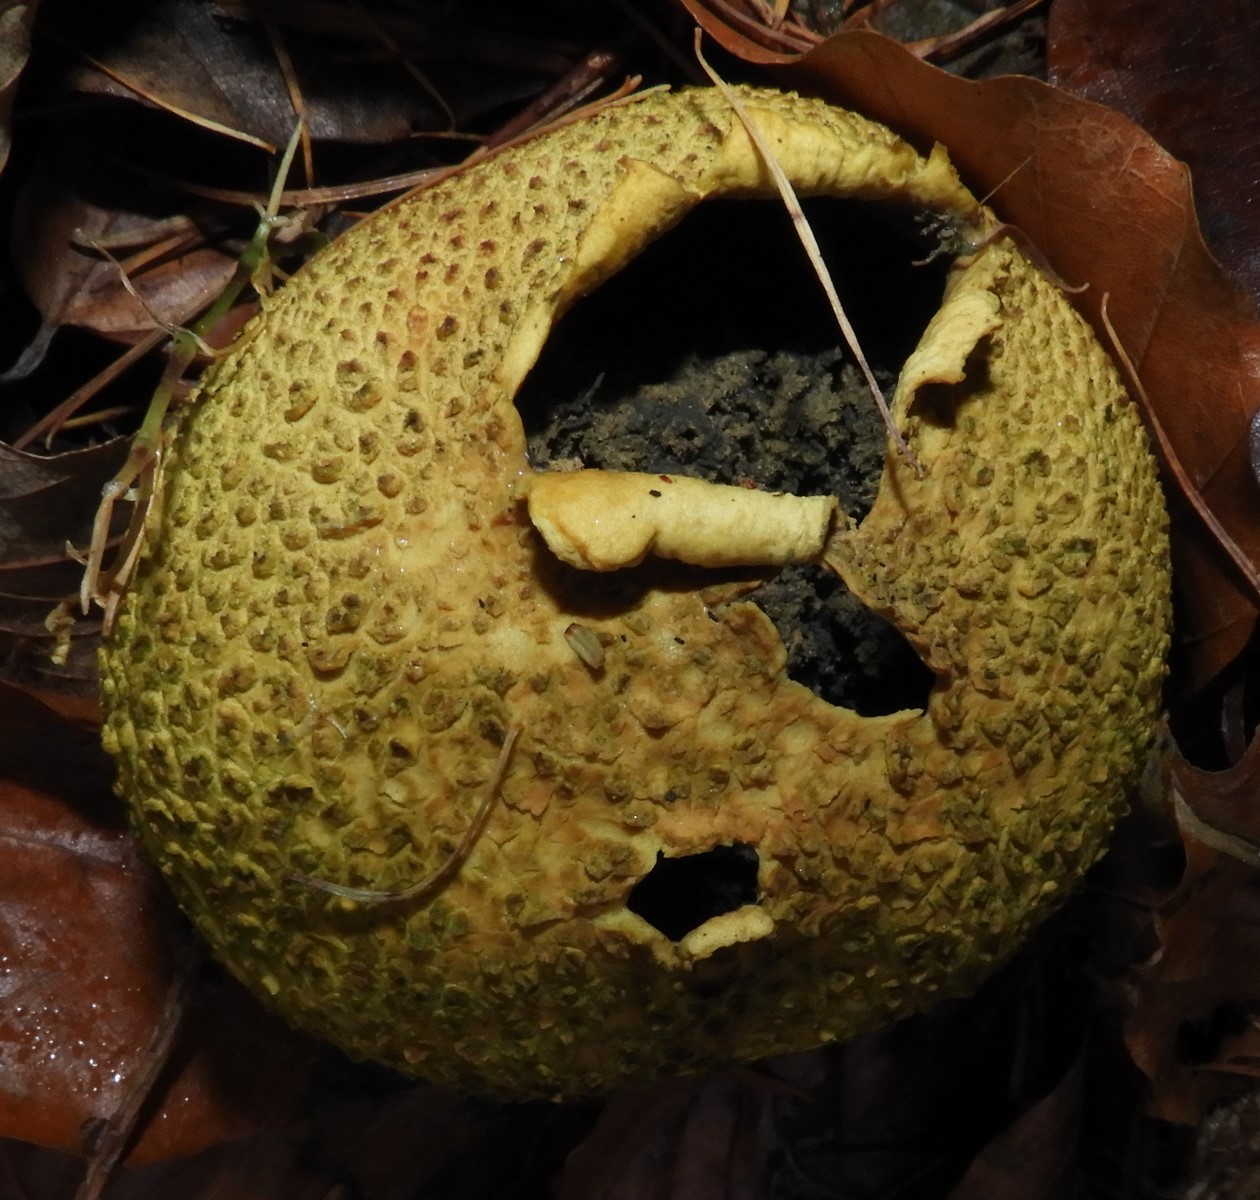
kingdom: Fungi
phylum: Basidiomycota
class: Agaricomycetes
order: Boletales
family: Sclerodermataceae
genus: Scleroderma
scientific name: Scleroderma citrinum
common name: almindelig bruskbold
